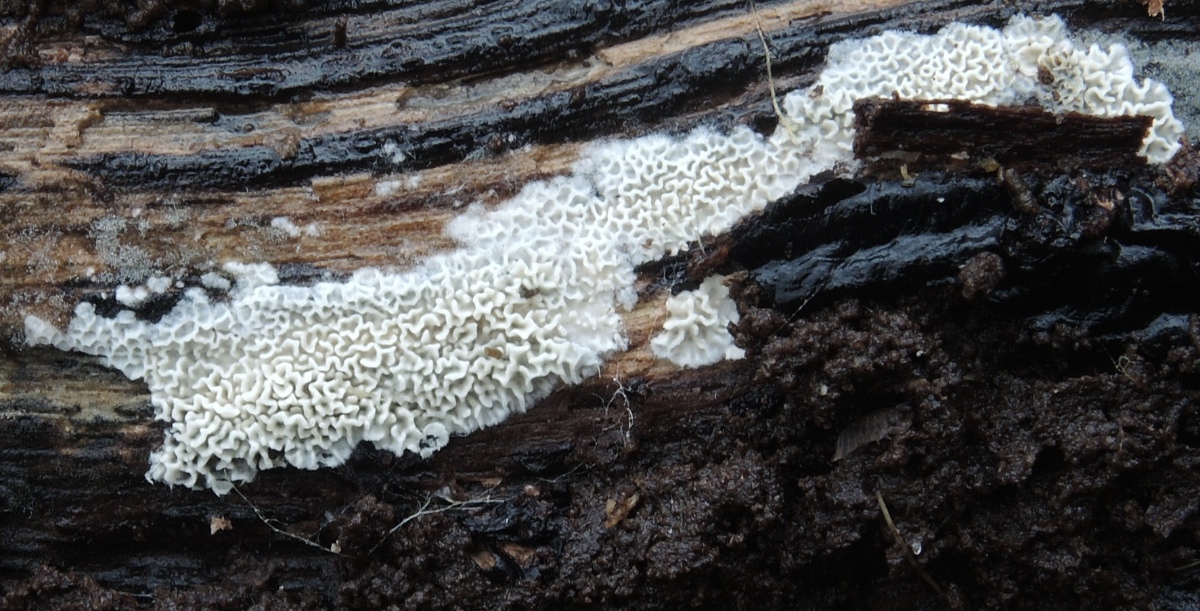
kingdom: Fungi
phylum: Basidiomycota
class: Agaricomycetes
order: Polyporales
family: Irpicaceae
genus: Ceriporia
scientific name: Ceriporia reticulata
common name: netagtig voksporesvamp
